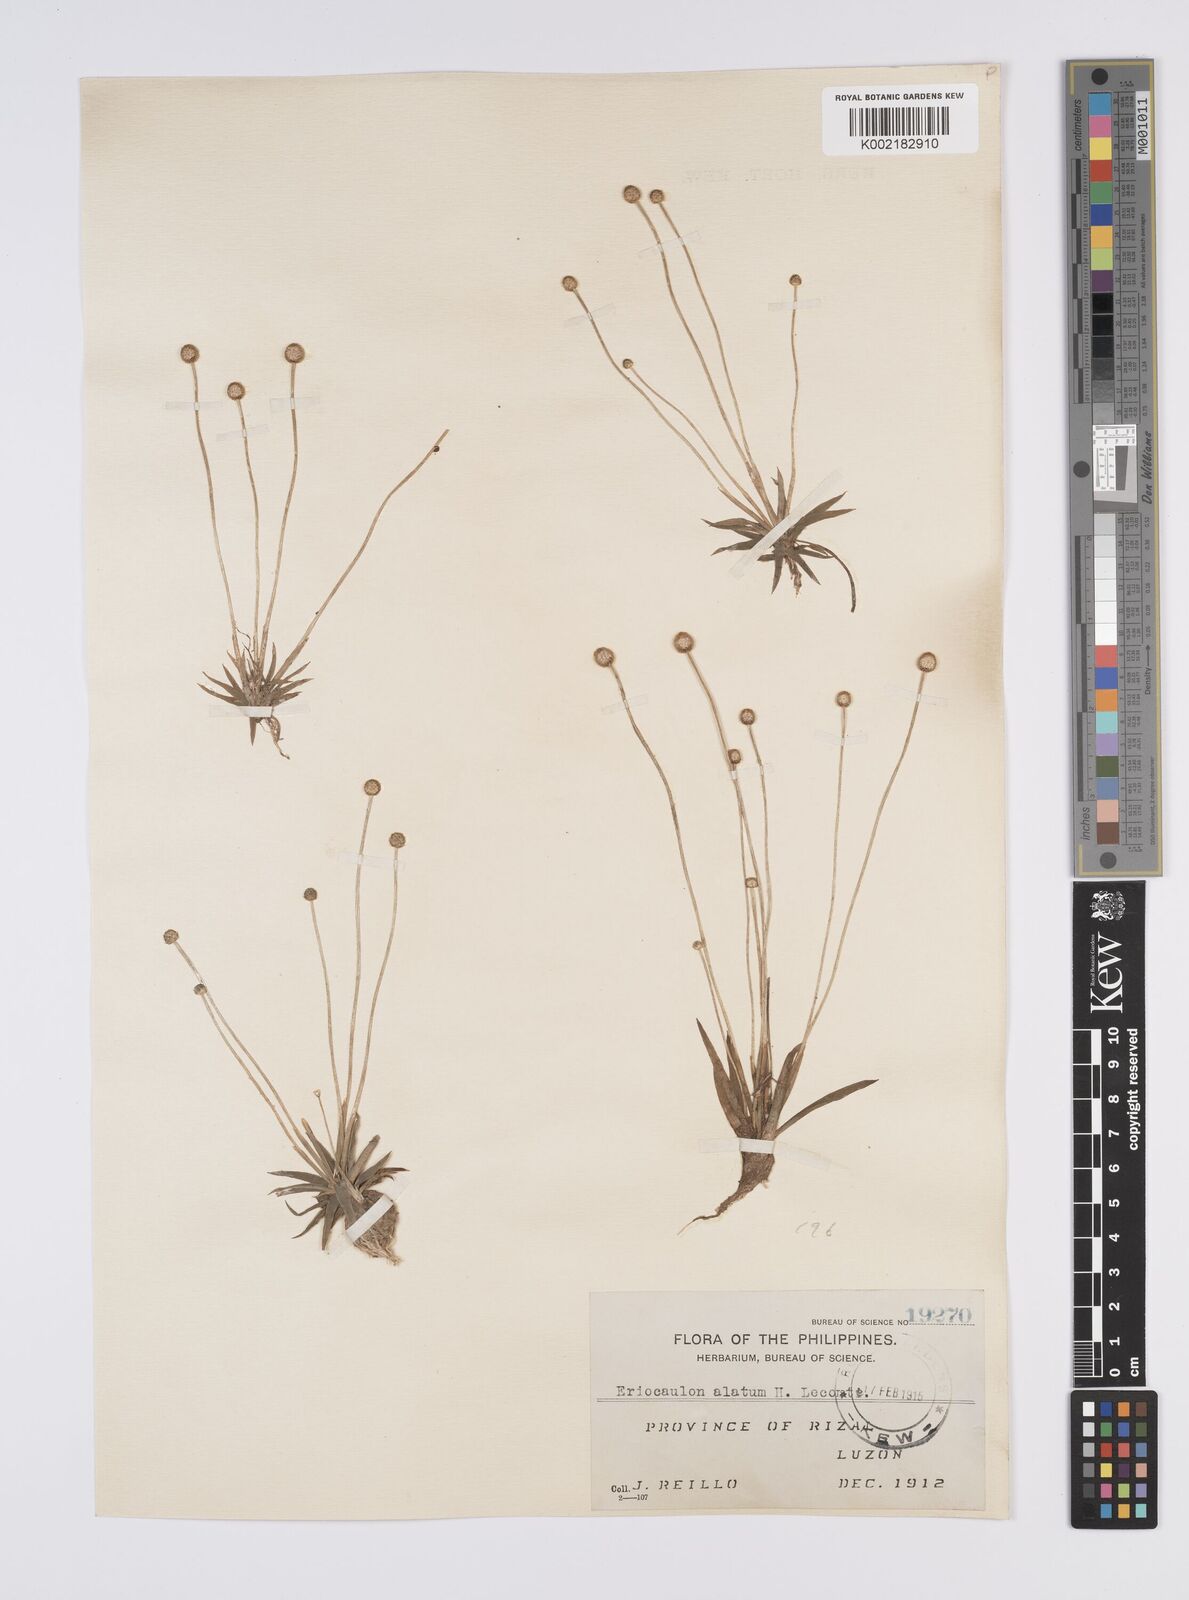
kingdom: Plantae
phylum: Tracheophyta
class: Liliopsida
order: Poales
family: Eriocaulaceae
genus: Eriocaulon
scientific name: Eriocaulon zollingerianum
